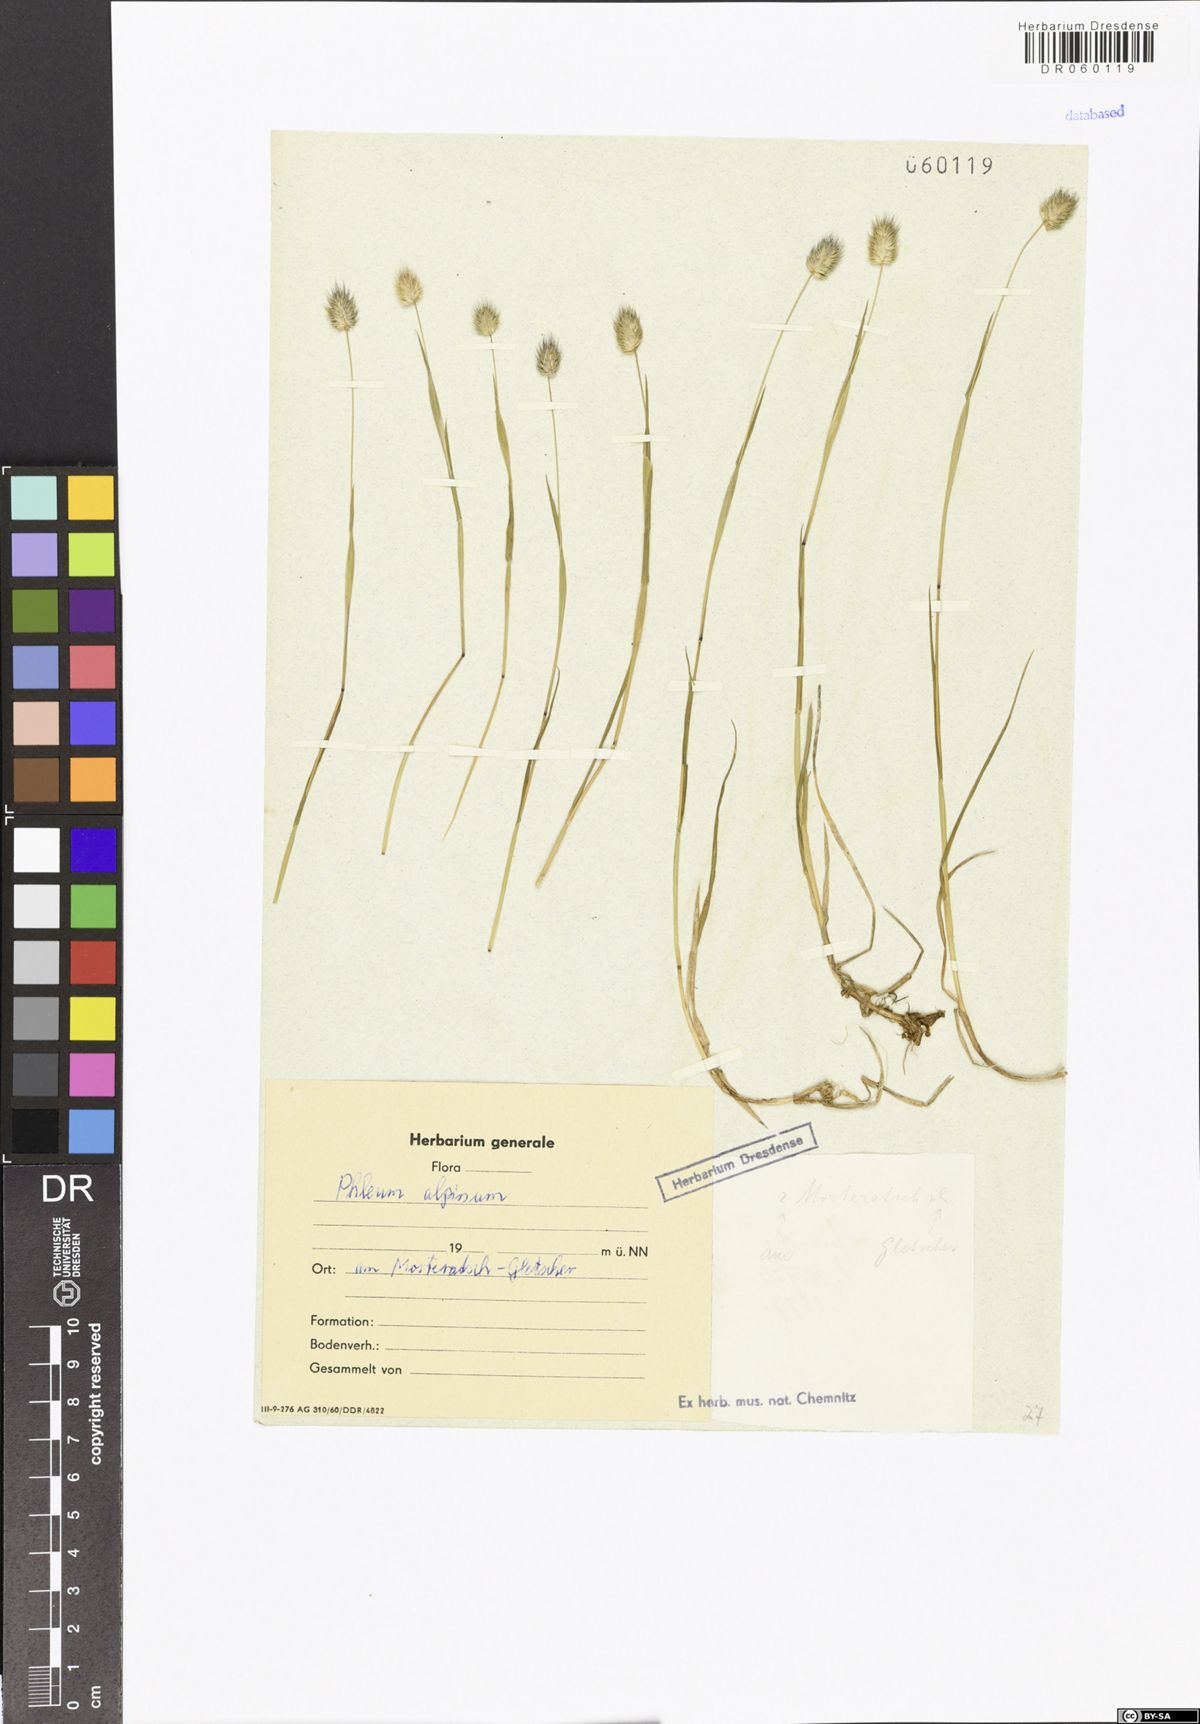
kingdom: Plantae
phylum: Tracheophyta
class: Liliopsida
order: Poales
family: Poaceae
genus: Phleum
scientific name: Phleum alpinum
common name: Alpine cat's-tail
